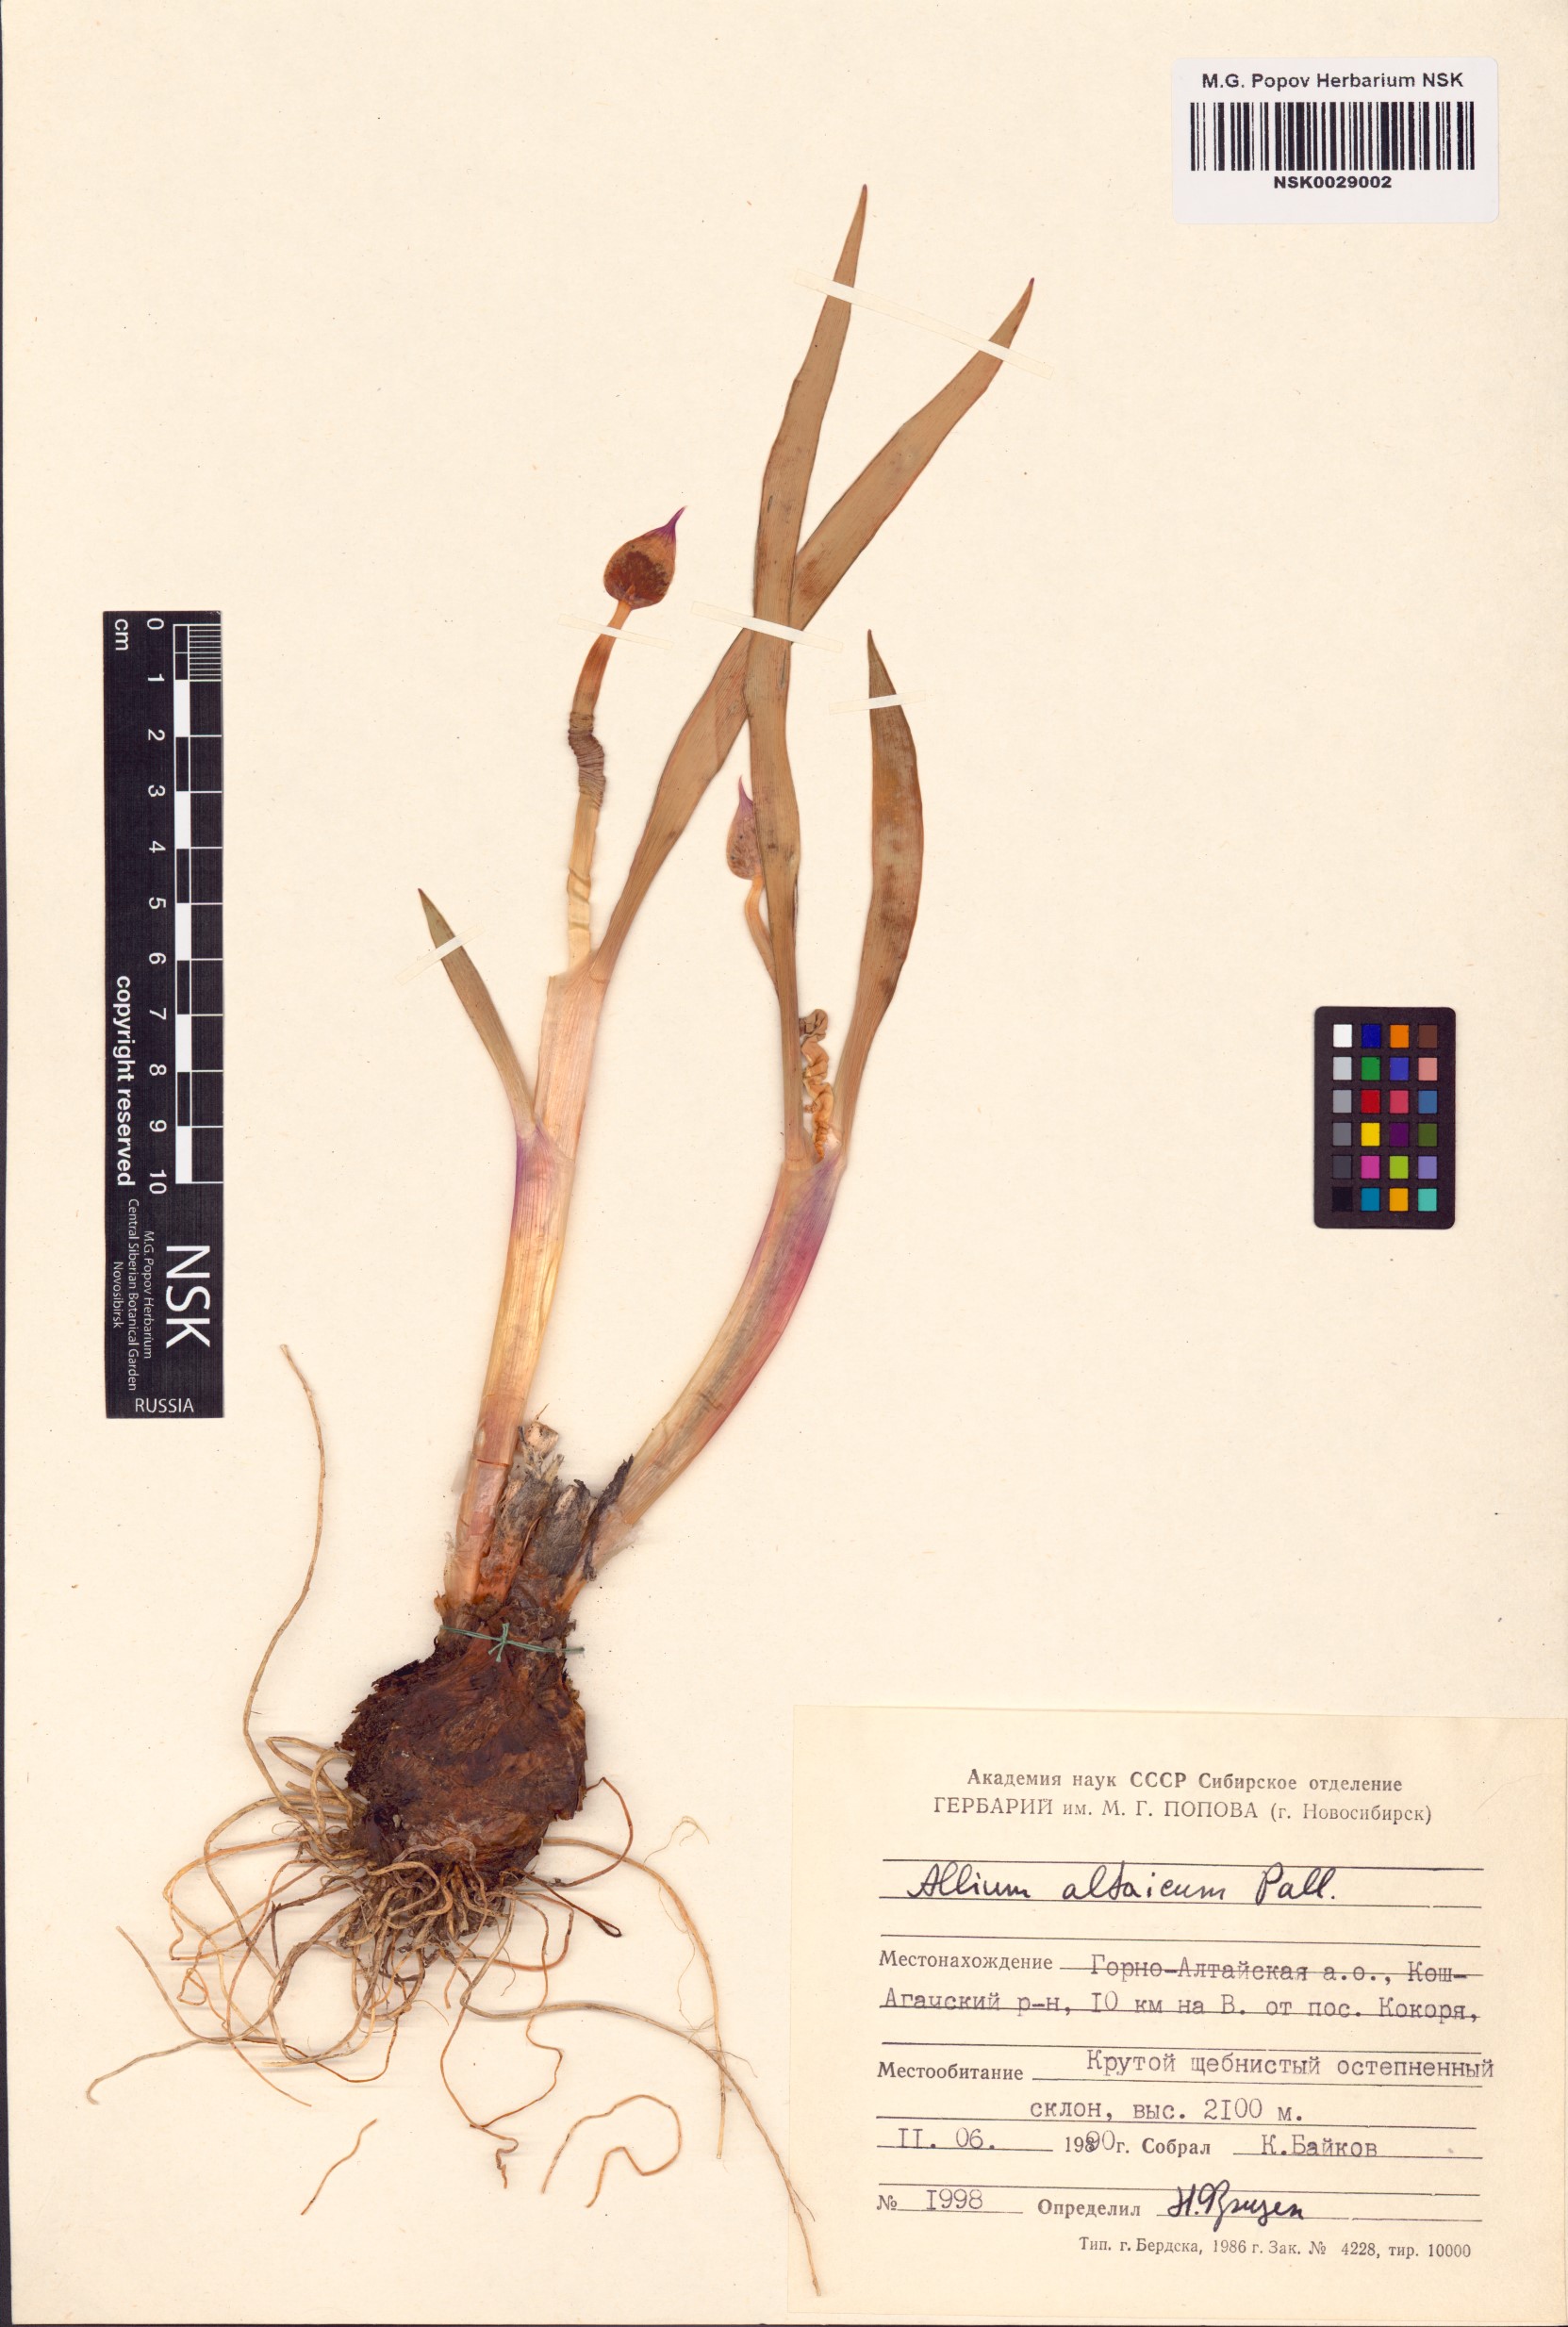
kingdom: Plantae
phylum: Tracheophyta
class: Liliopsida
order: Asparagales
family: Amaryllidaceae
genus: Allium
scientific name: Allium altaicum
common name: Altai onion
